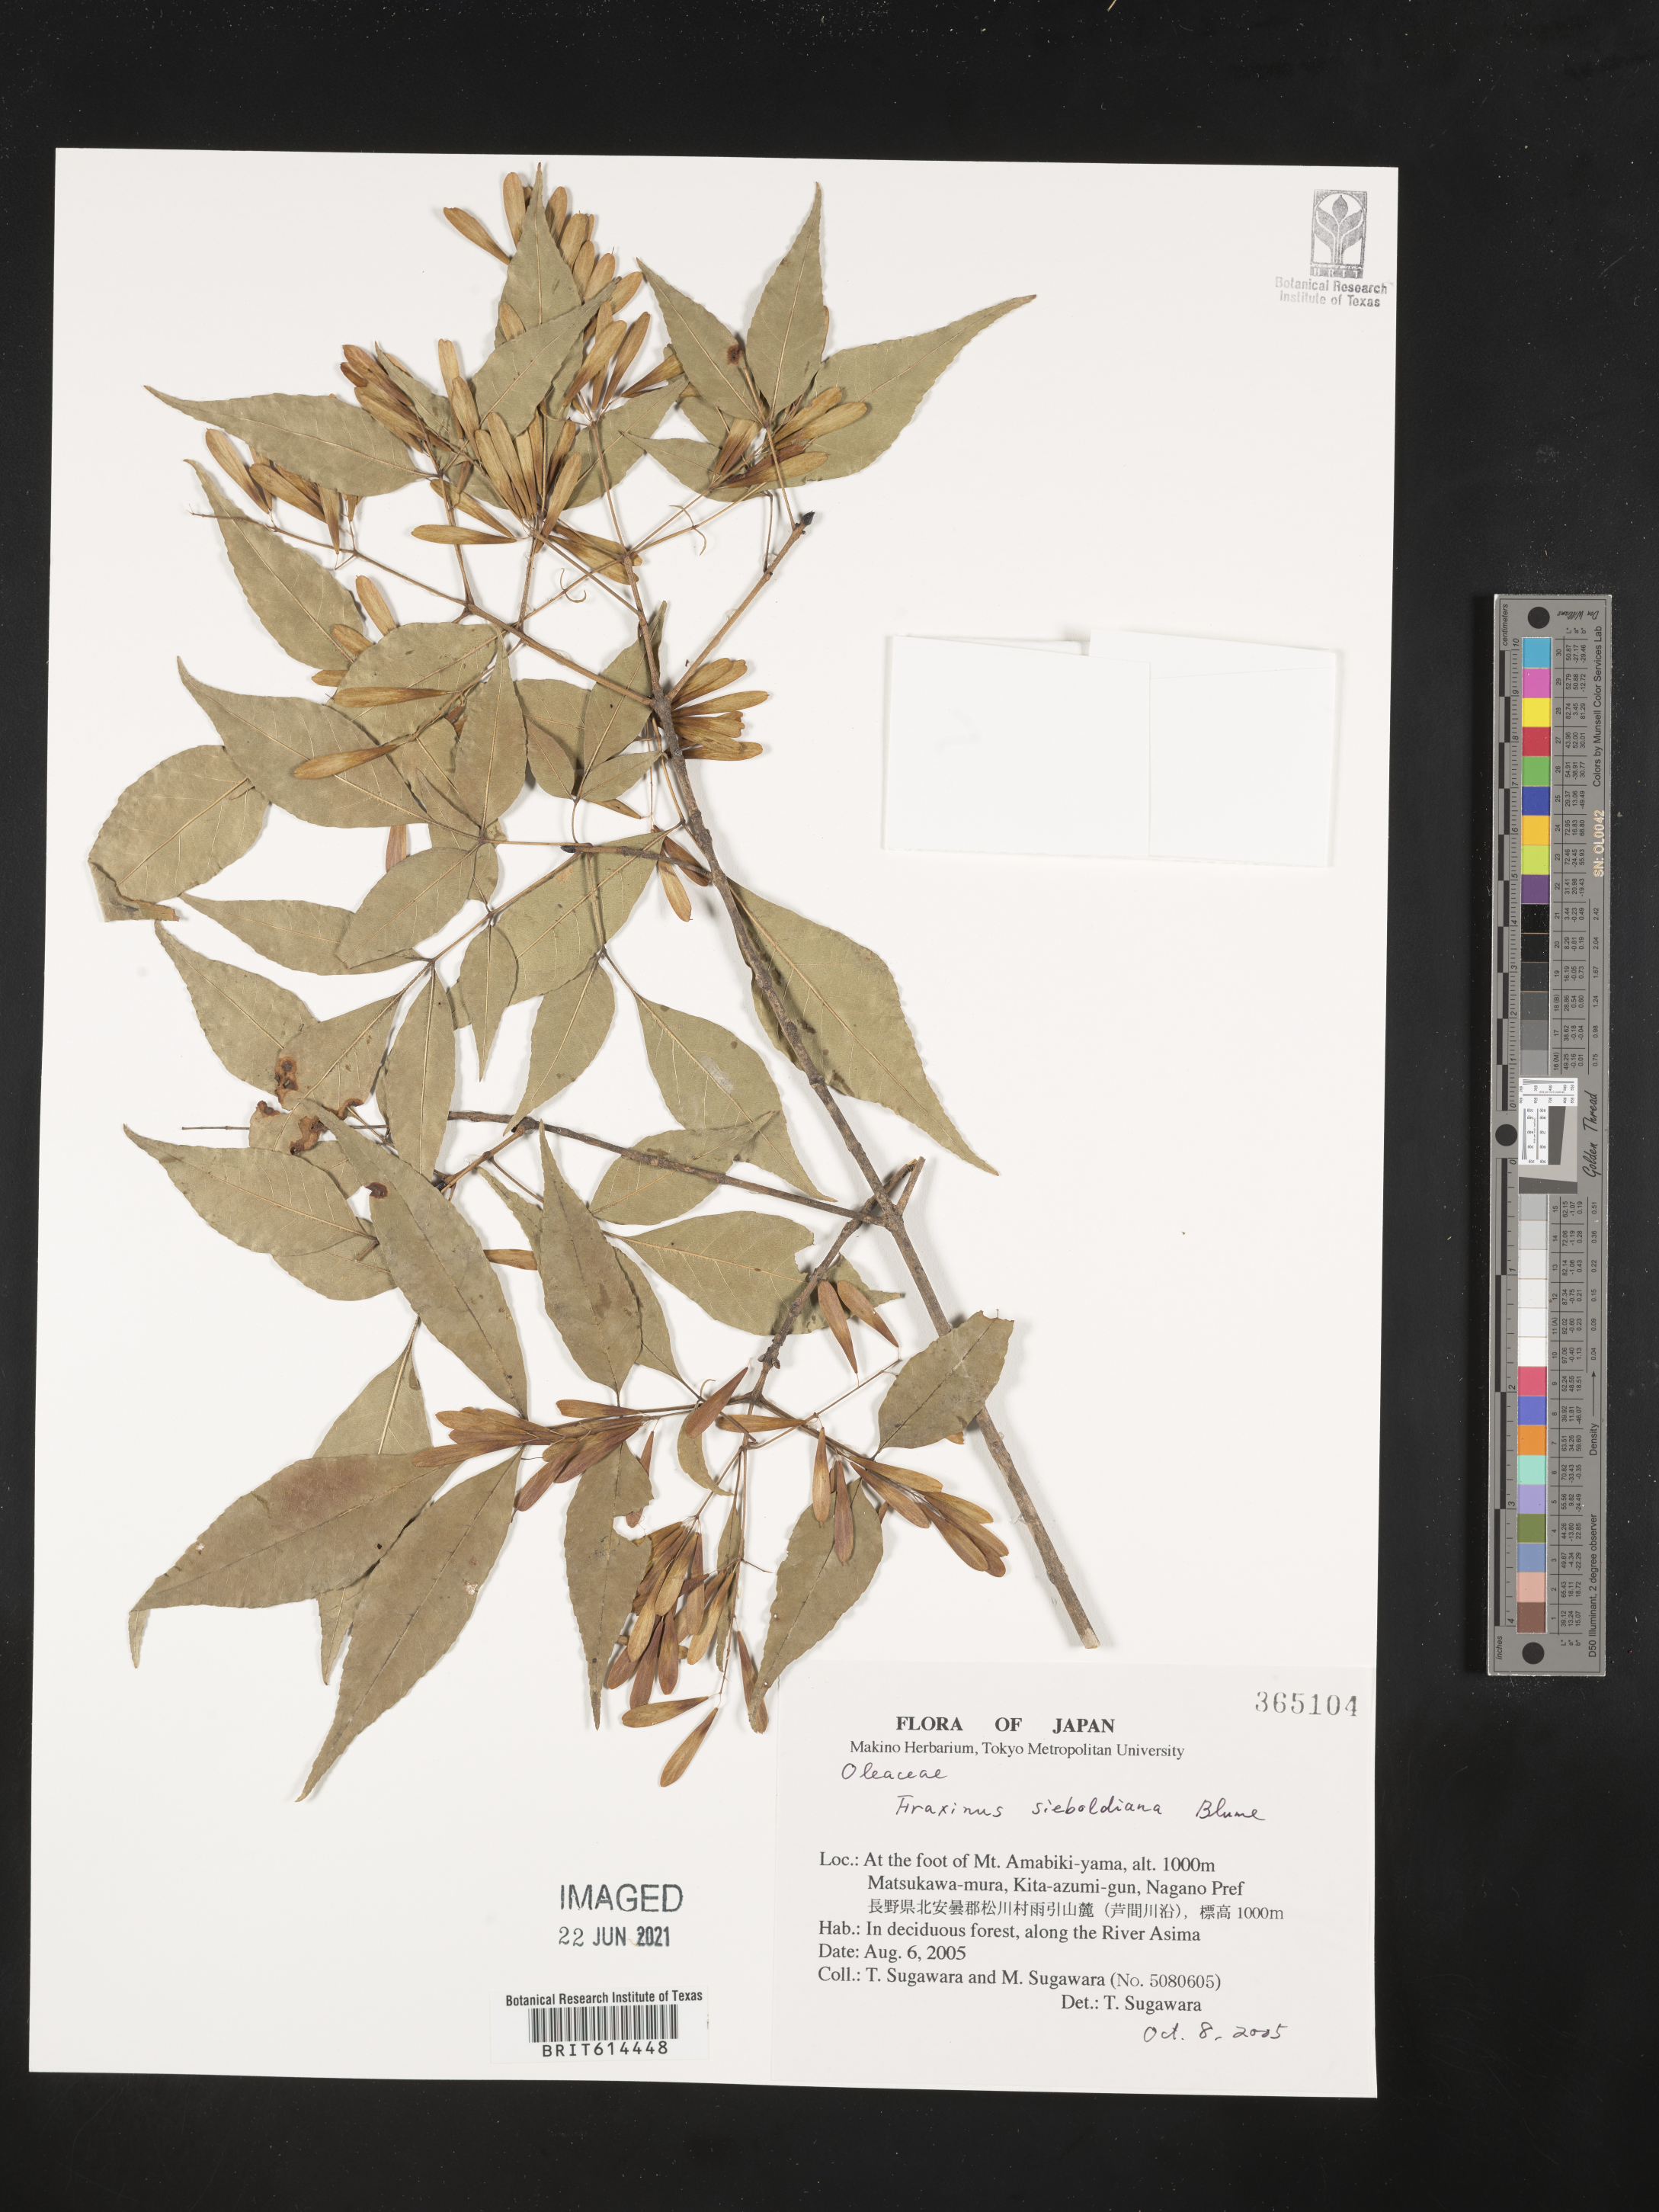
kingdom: Plantae
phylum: Tracheophyta
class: Magnoliopsida
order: Lamiales
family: Oleaceae
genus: Fraxinus
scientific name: Fraxinus sieboldiana
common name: Chinese flowering ash
